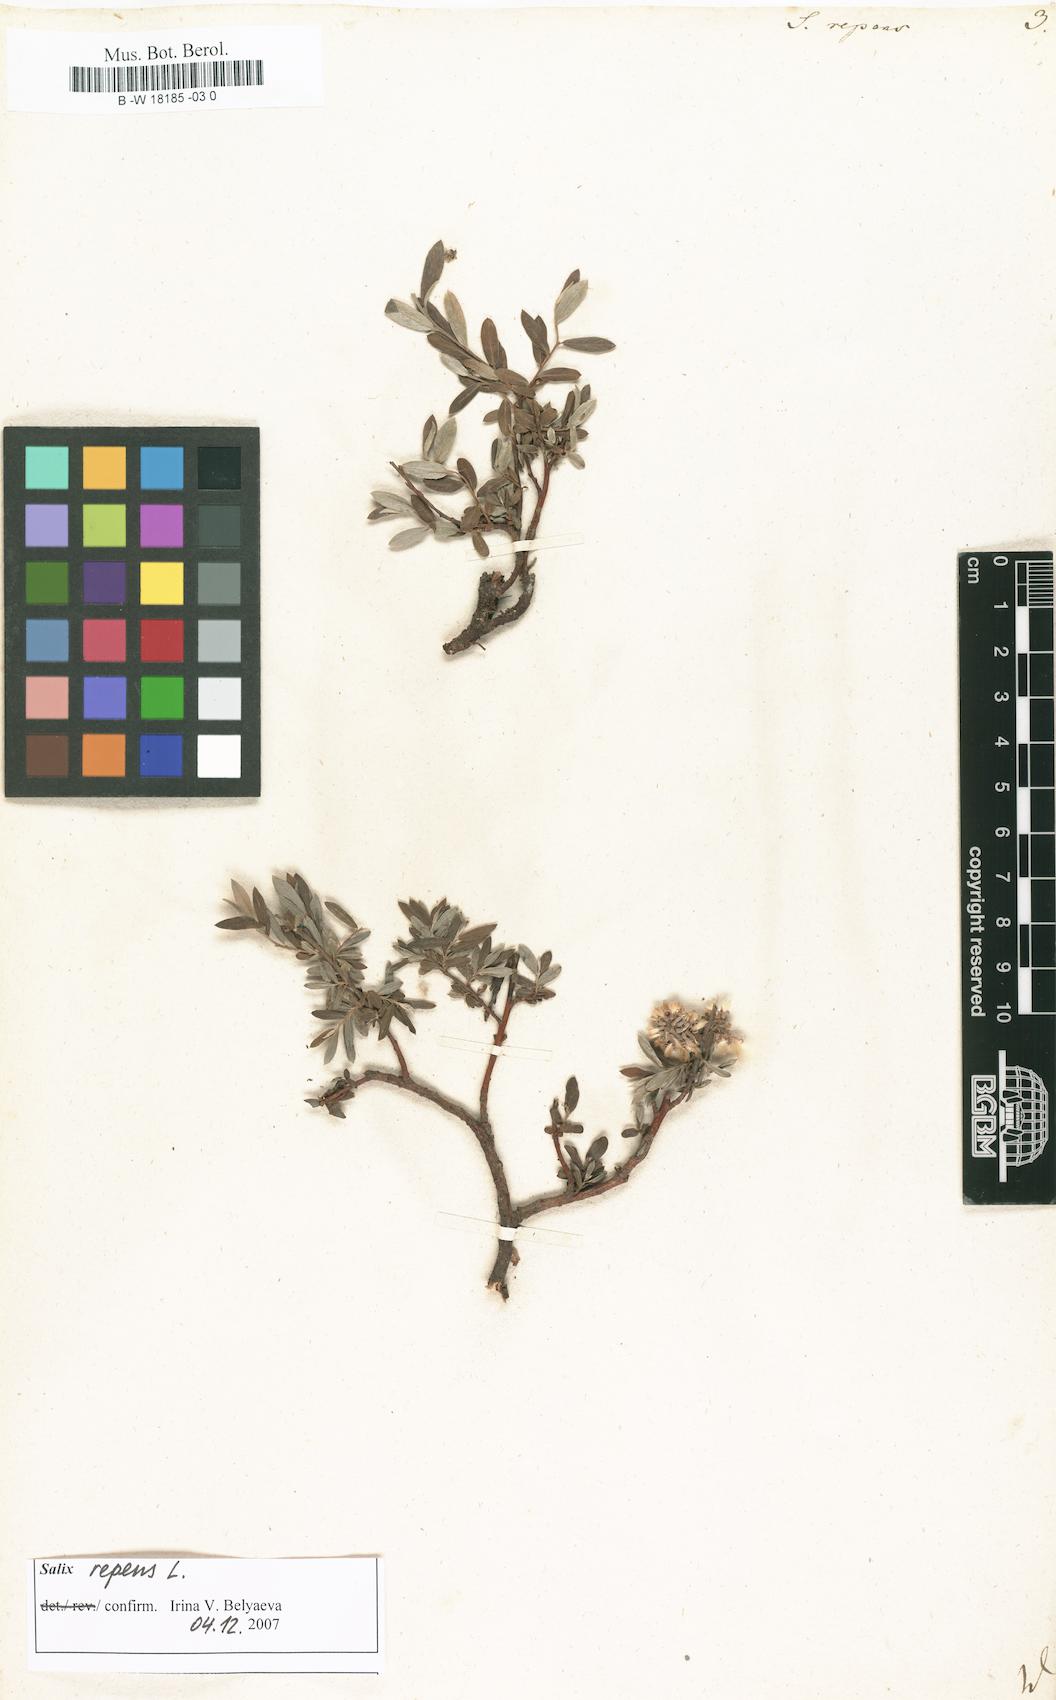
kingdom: Plantae
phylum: Tracheophyta
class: Magnoliopsida
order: Malpighiales
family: Salicaceae
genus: Salix
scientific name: Salix repens
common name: Creeping willow
